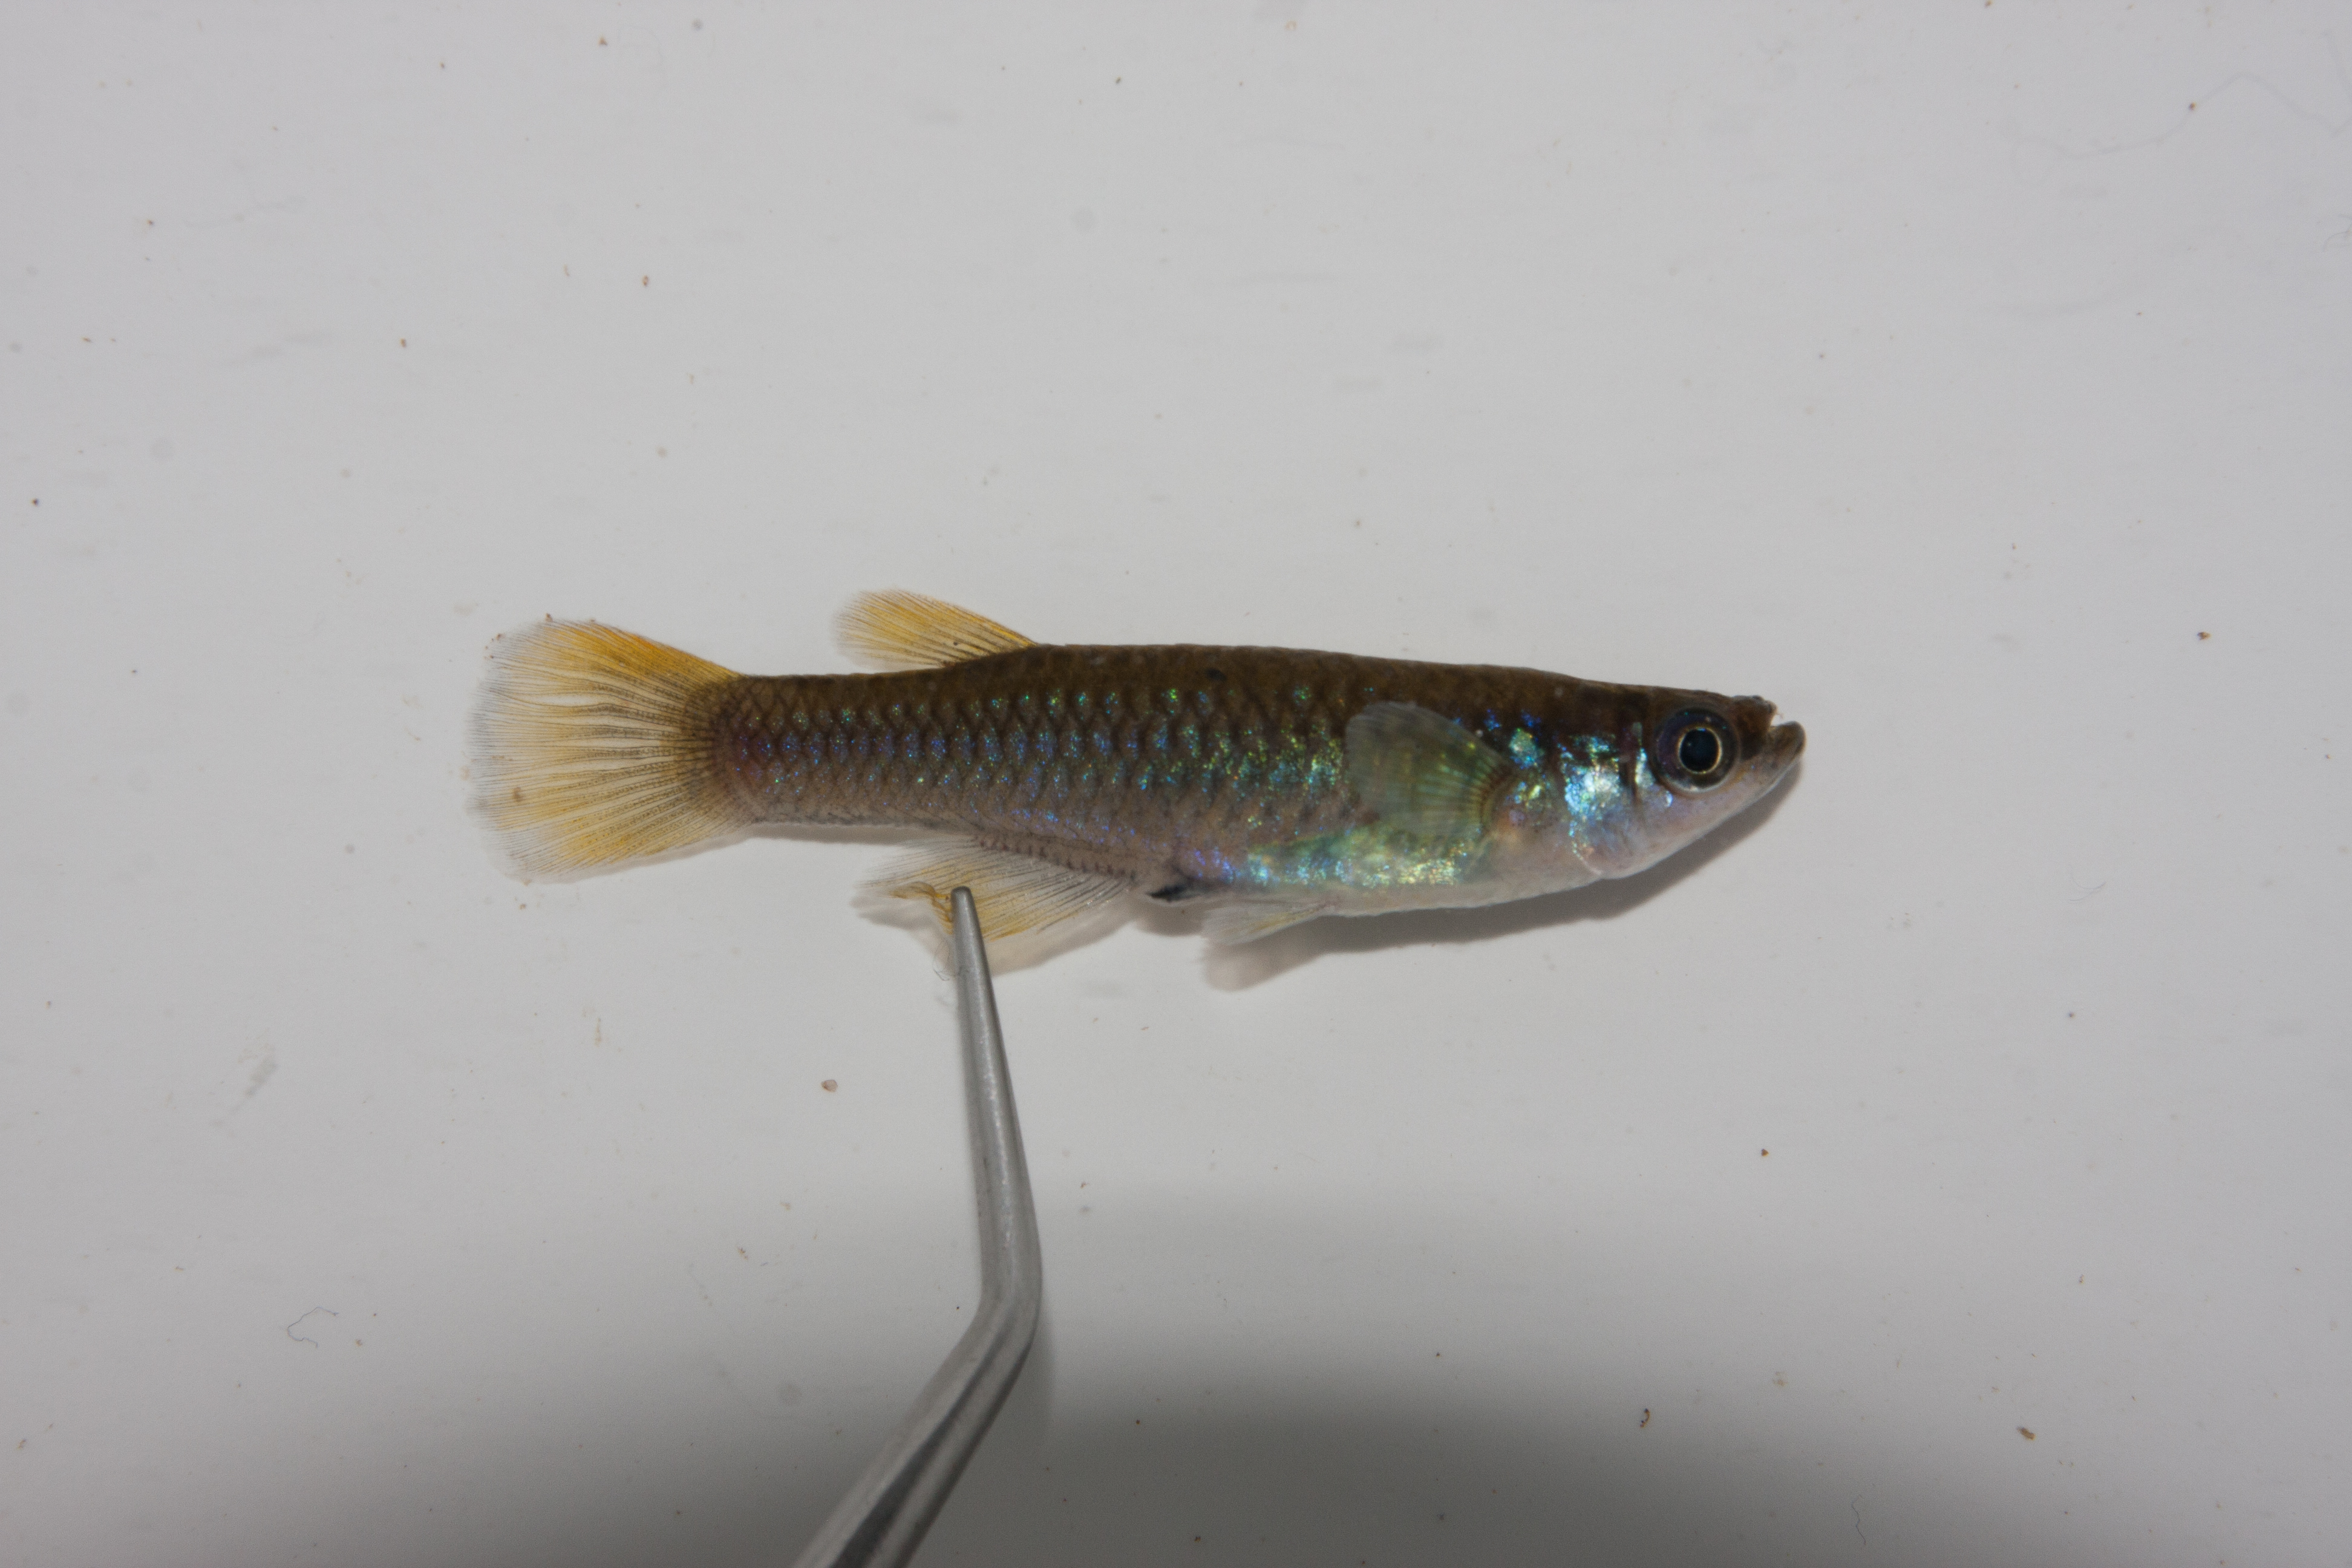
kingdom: Animalia
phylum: Chordata
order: Cyprinodontiformes
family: Poeciliidae
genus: Micropanchax
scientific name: Micropanchax johnstoni
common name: Johnston's topminnow
